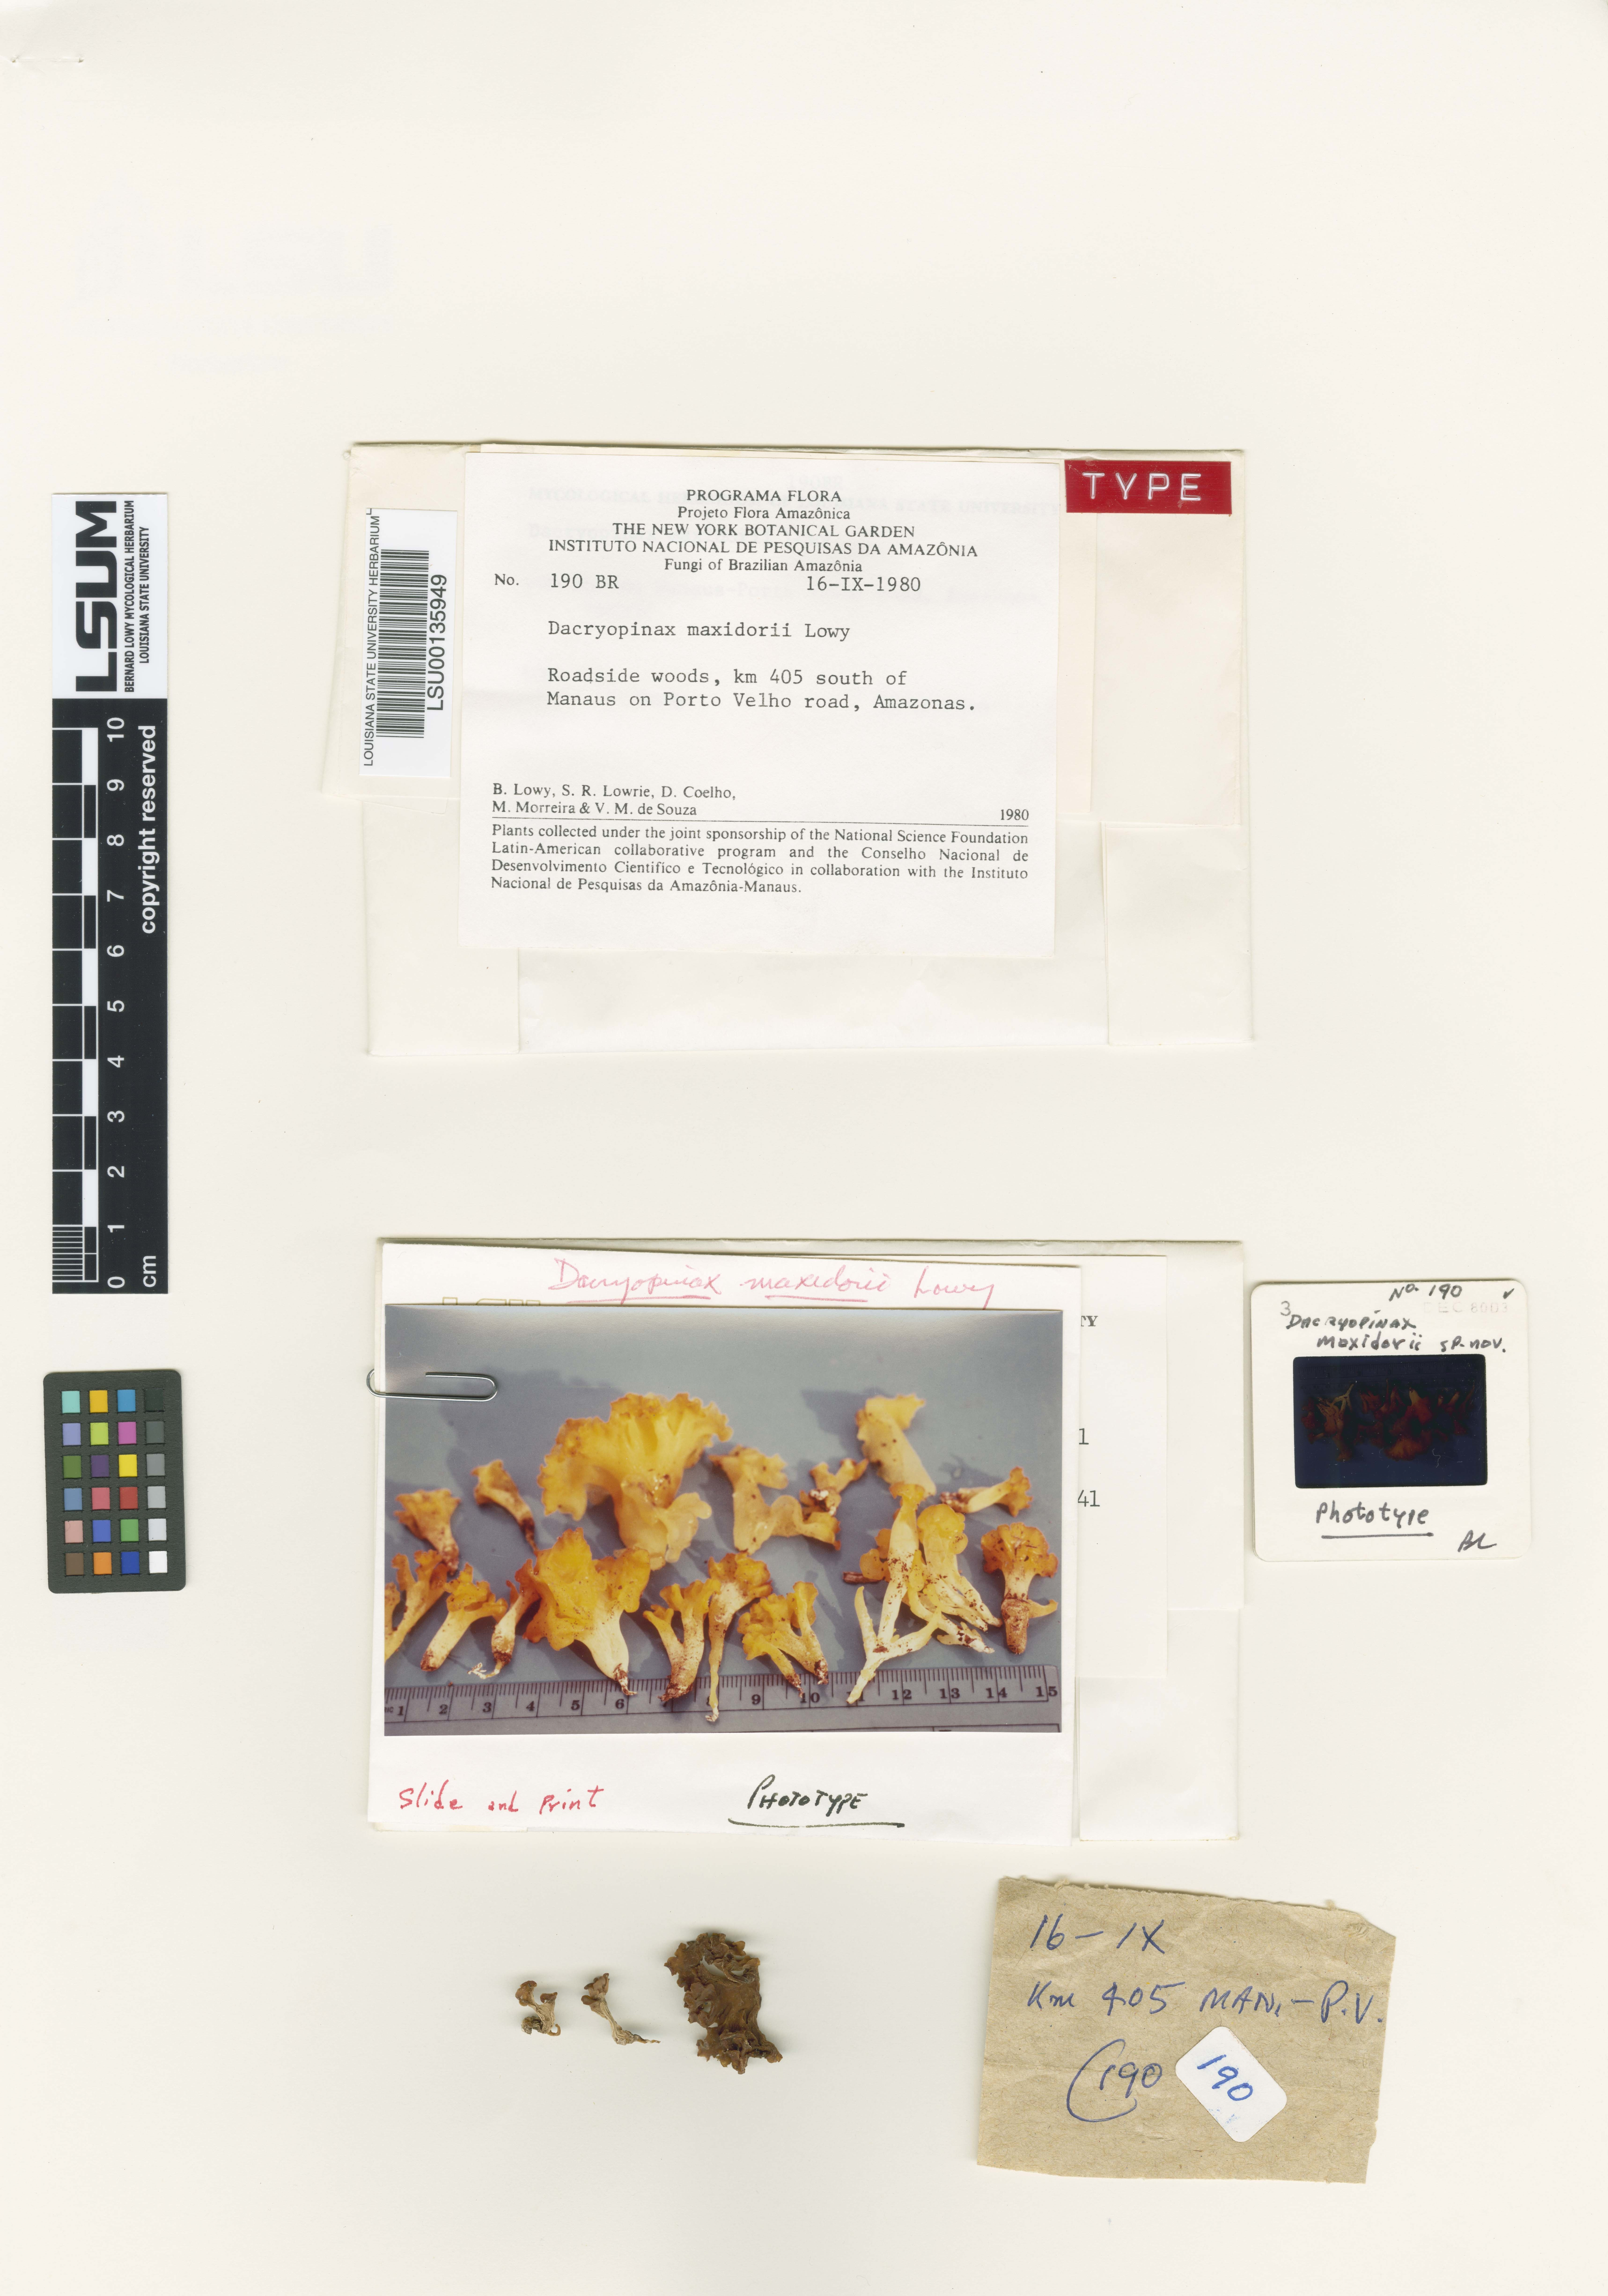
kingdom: Fungi
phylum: Basidiomycota
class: Dacrymycetes
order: Dacrymycetales
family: Dacrymycetaceae
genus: Dacrymyces
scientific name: Dacrymyces maxidorii
